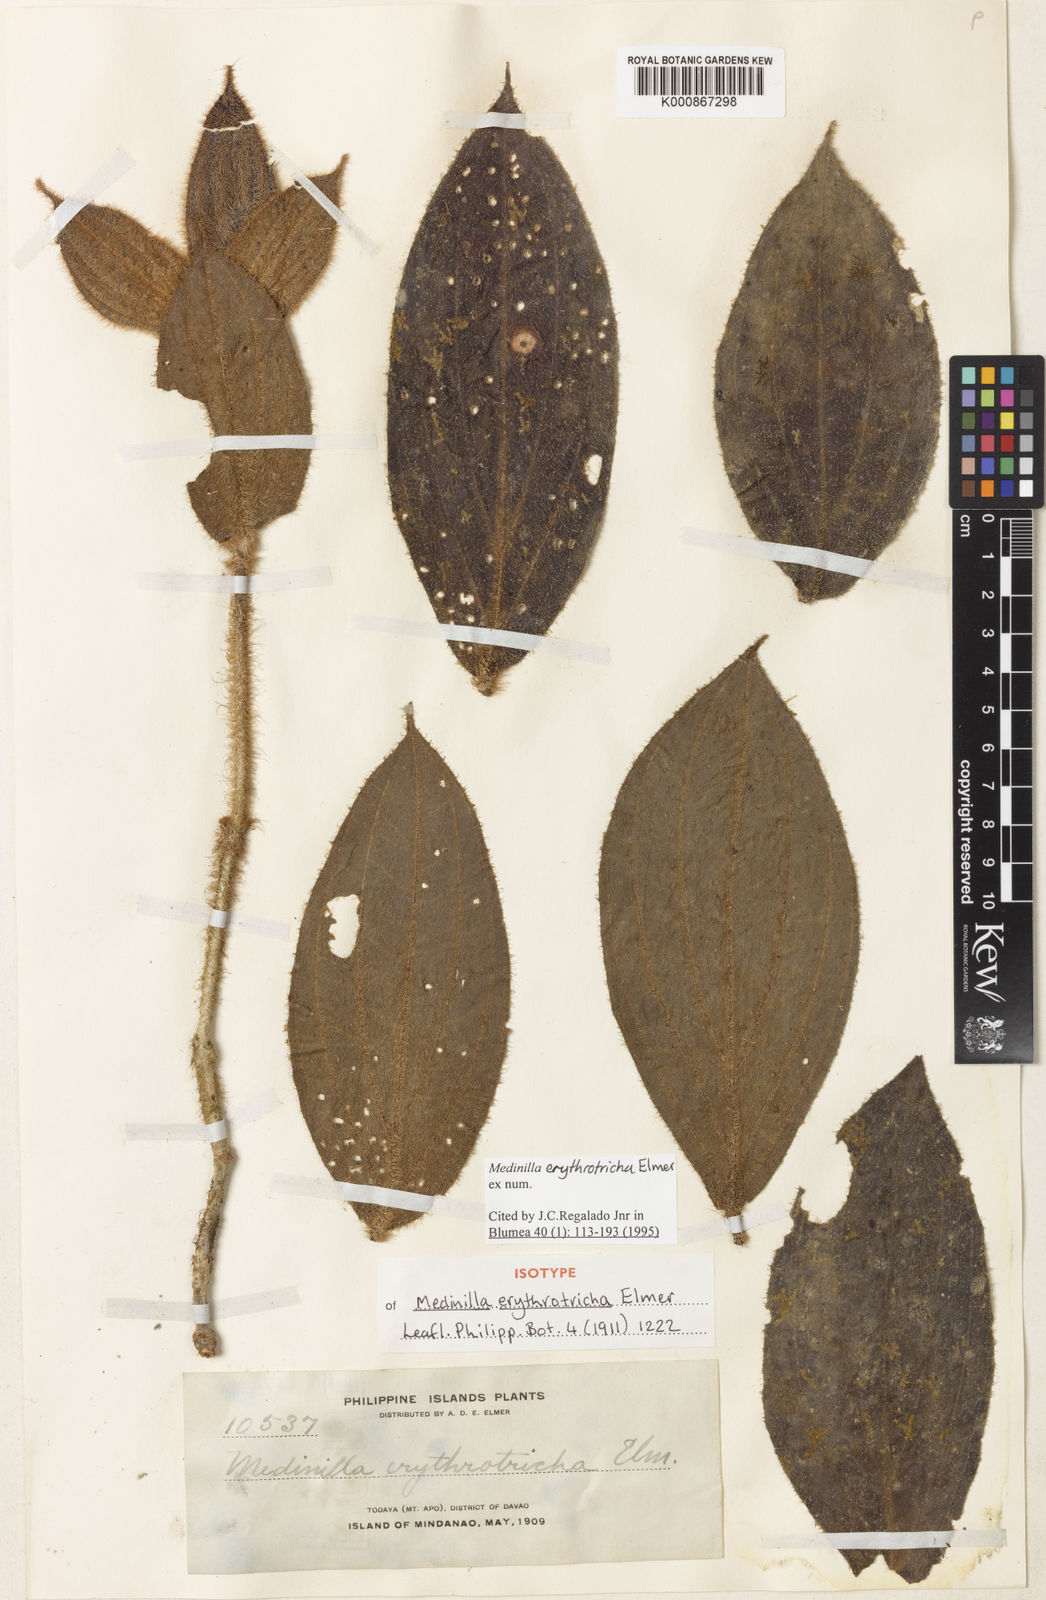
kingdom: Plantae
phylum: Tracheophyta
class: Magnoliopsida
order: Myrtales
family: Melastomataceae
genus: Medinilla
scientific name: Medinilla erythrotricha
